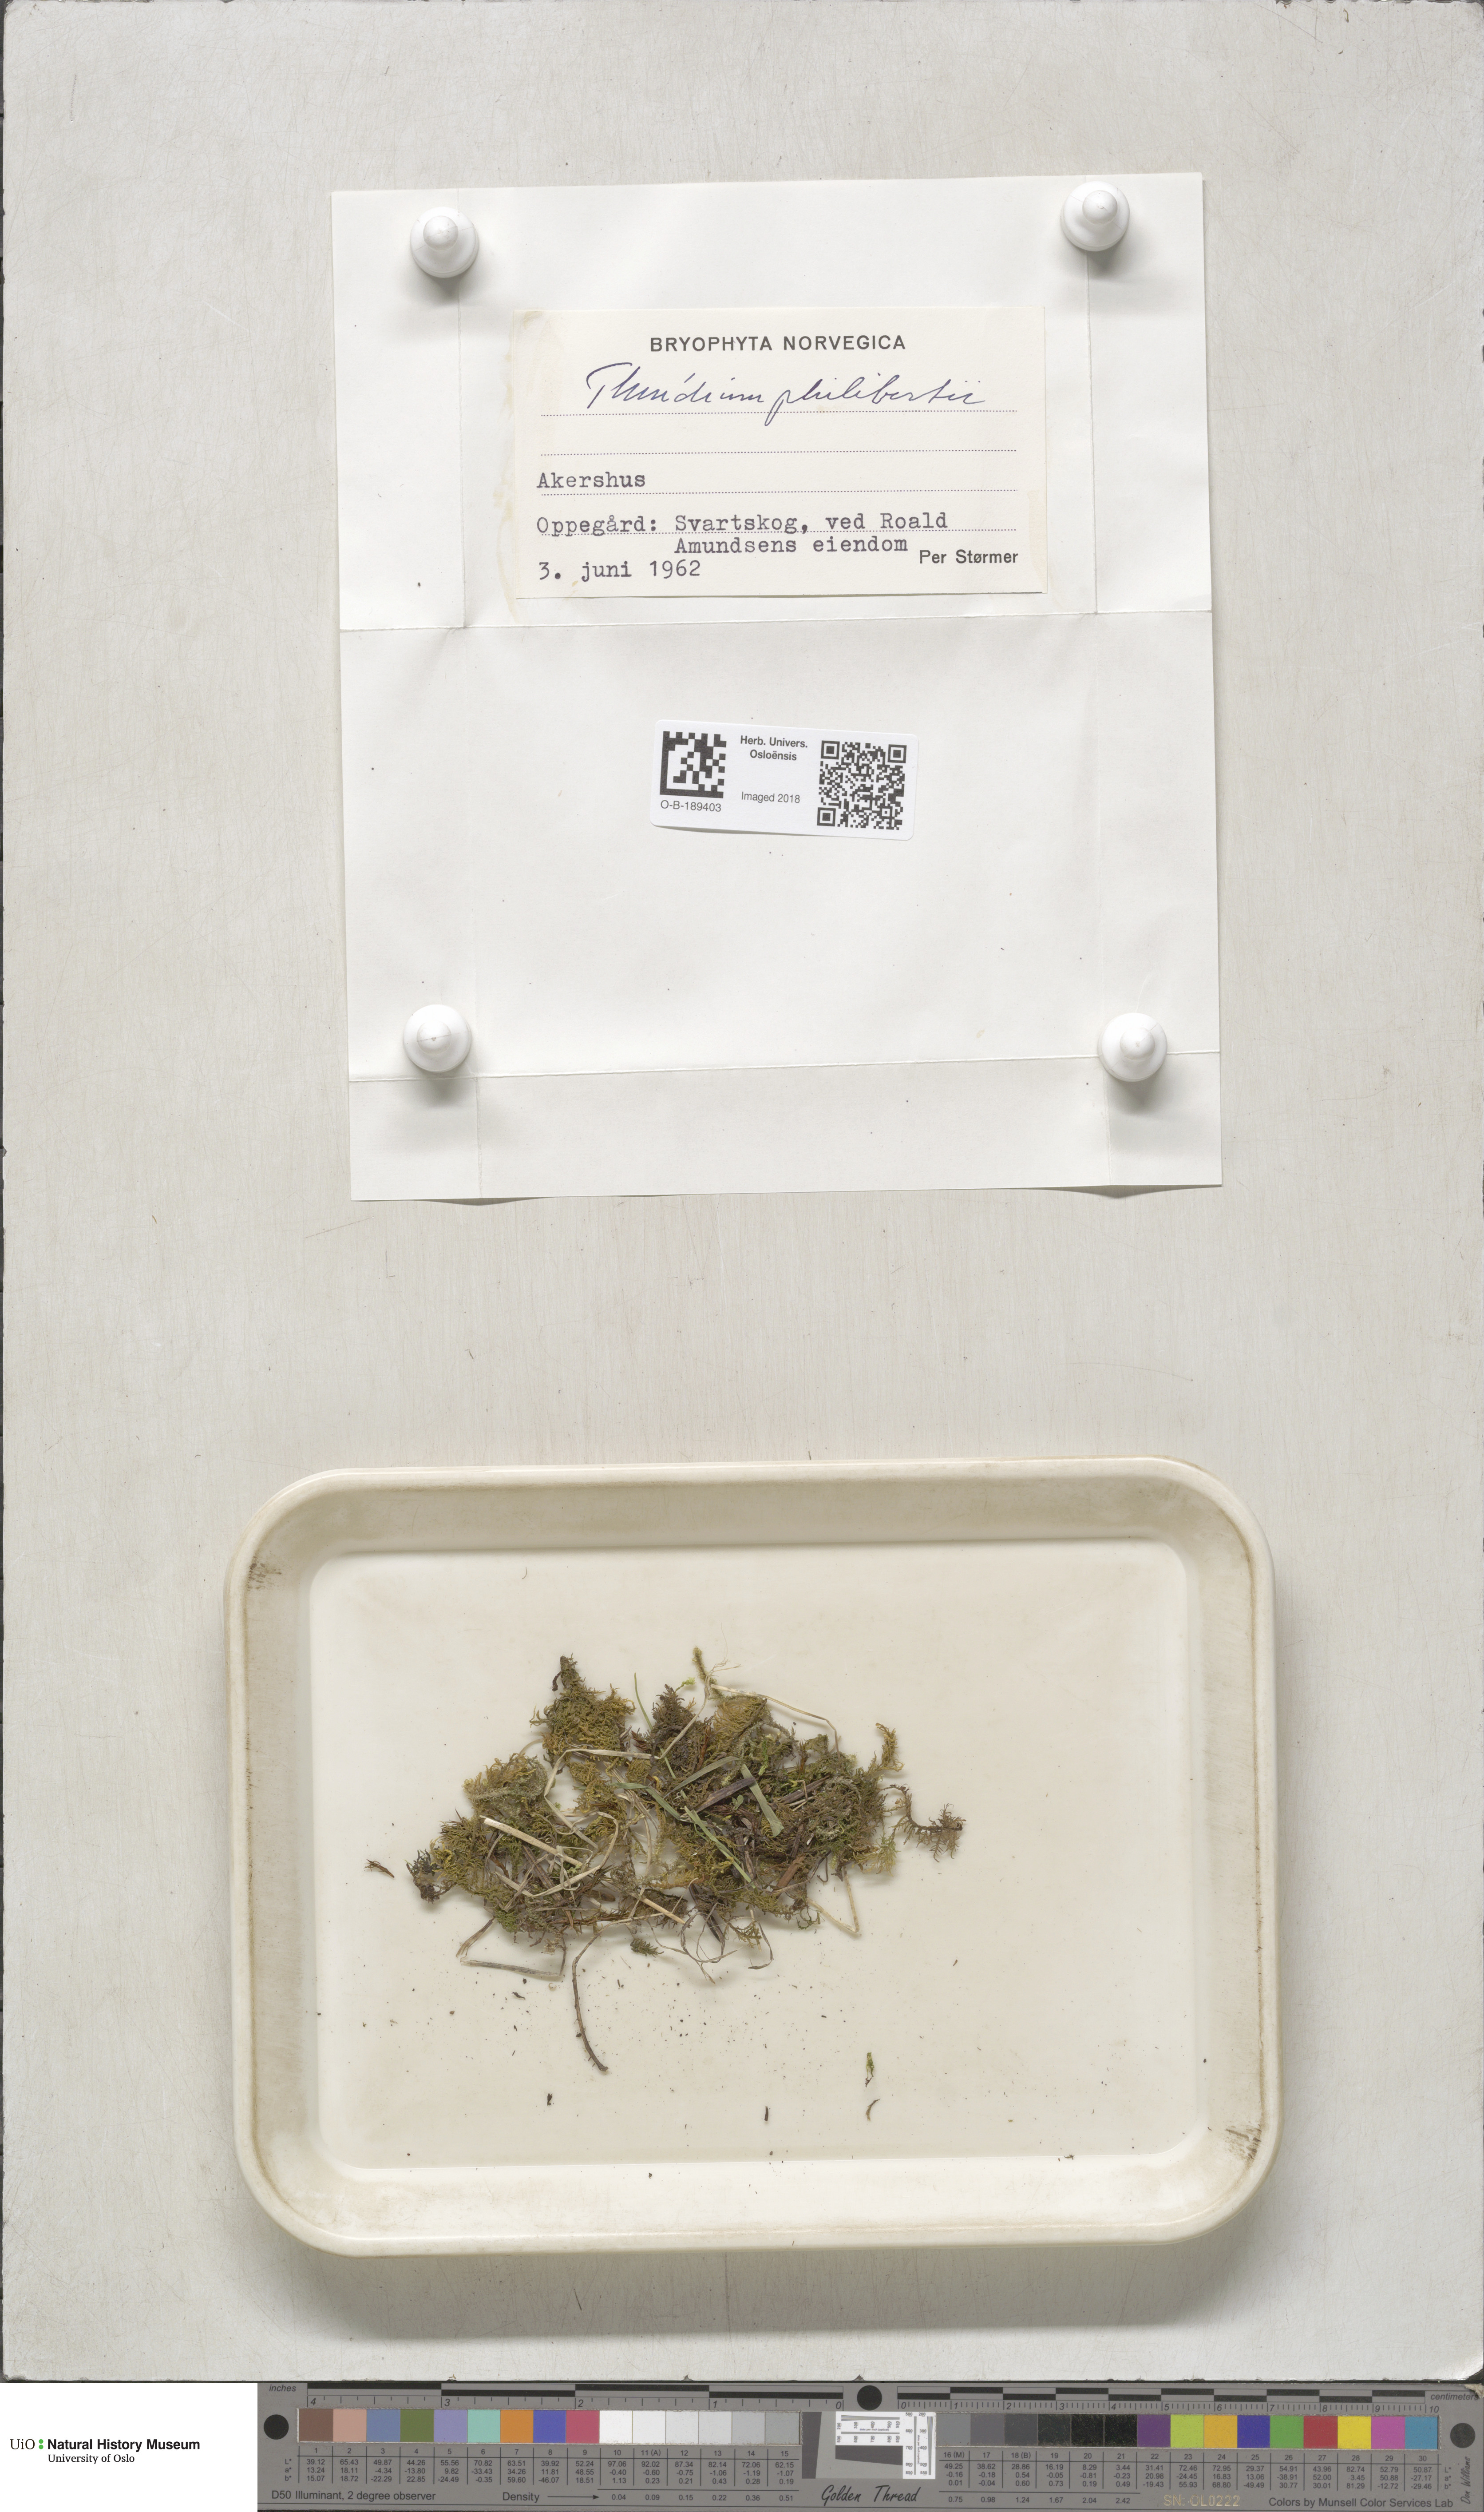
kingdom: Plantae
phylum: Bryophyta
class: Bryopsida
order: Hypnales
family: Thuidiaceae
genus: Thuidium
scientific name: Thuidium assimile
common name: Philibert's fern moss
